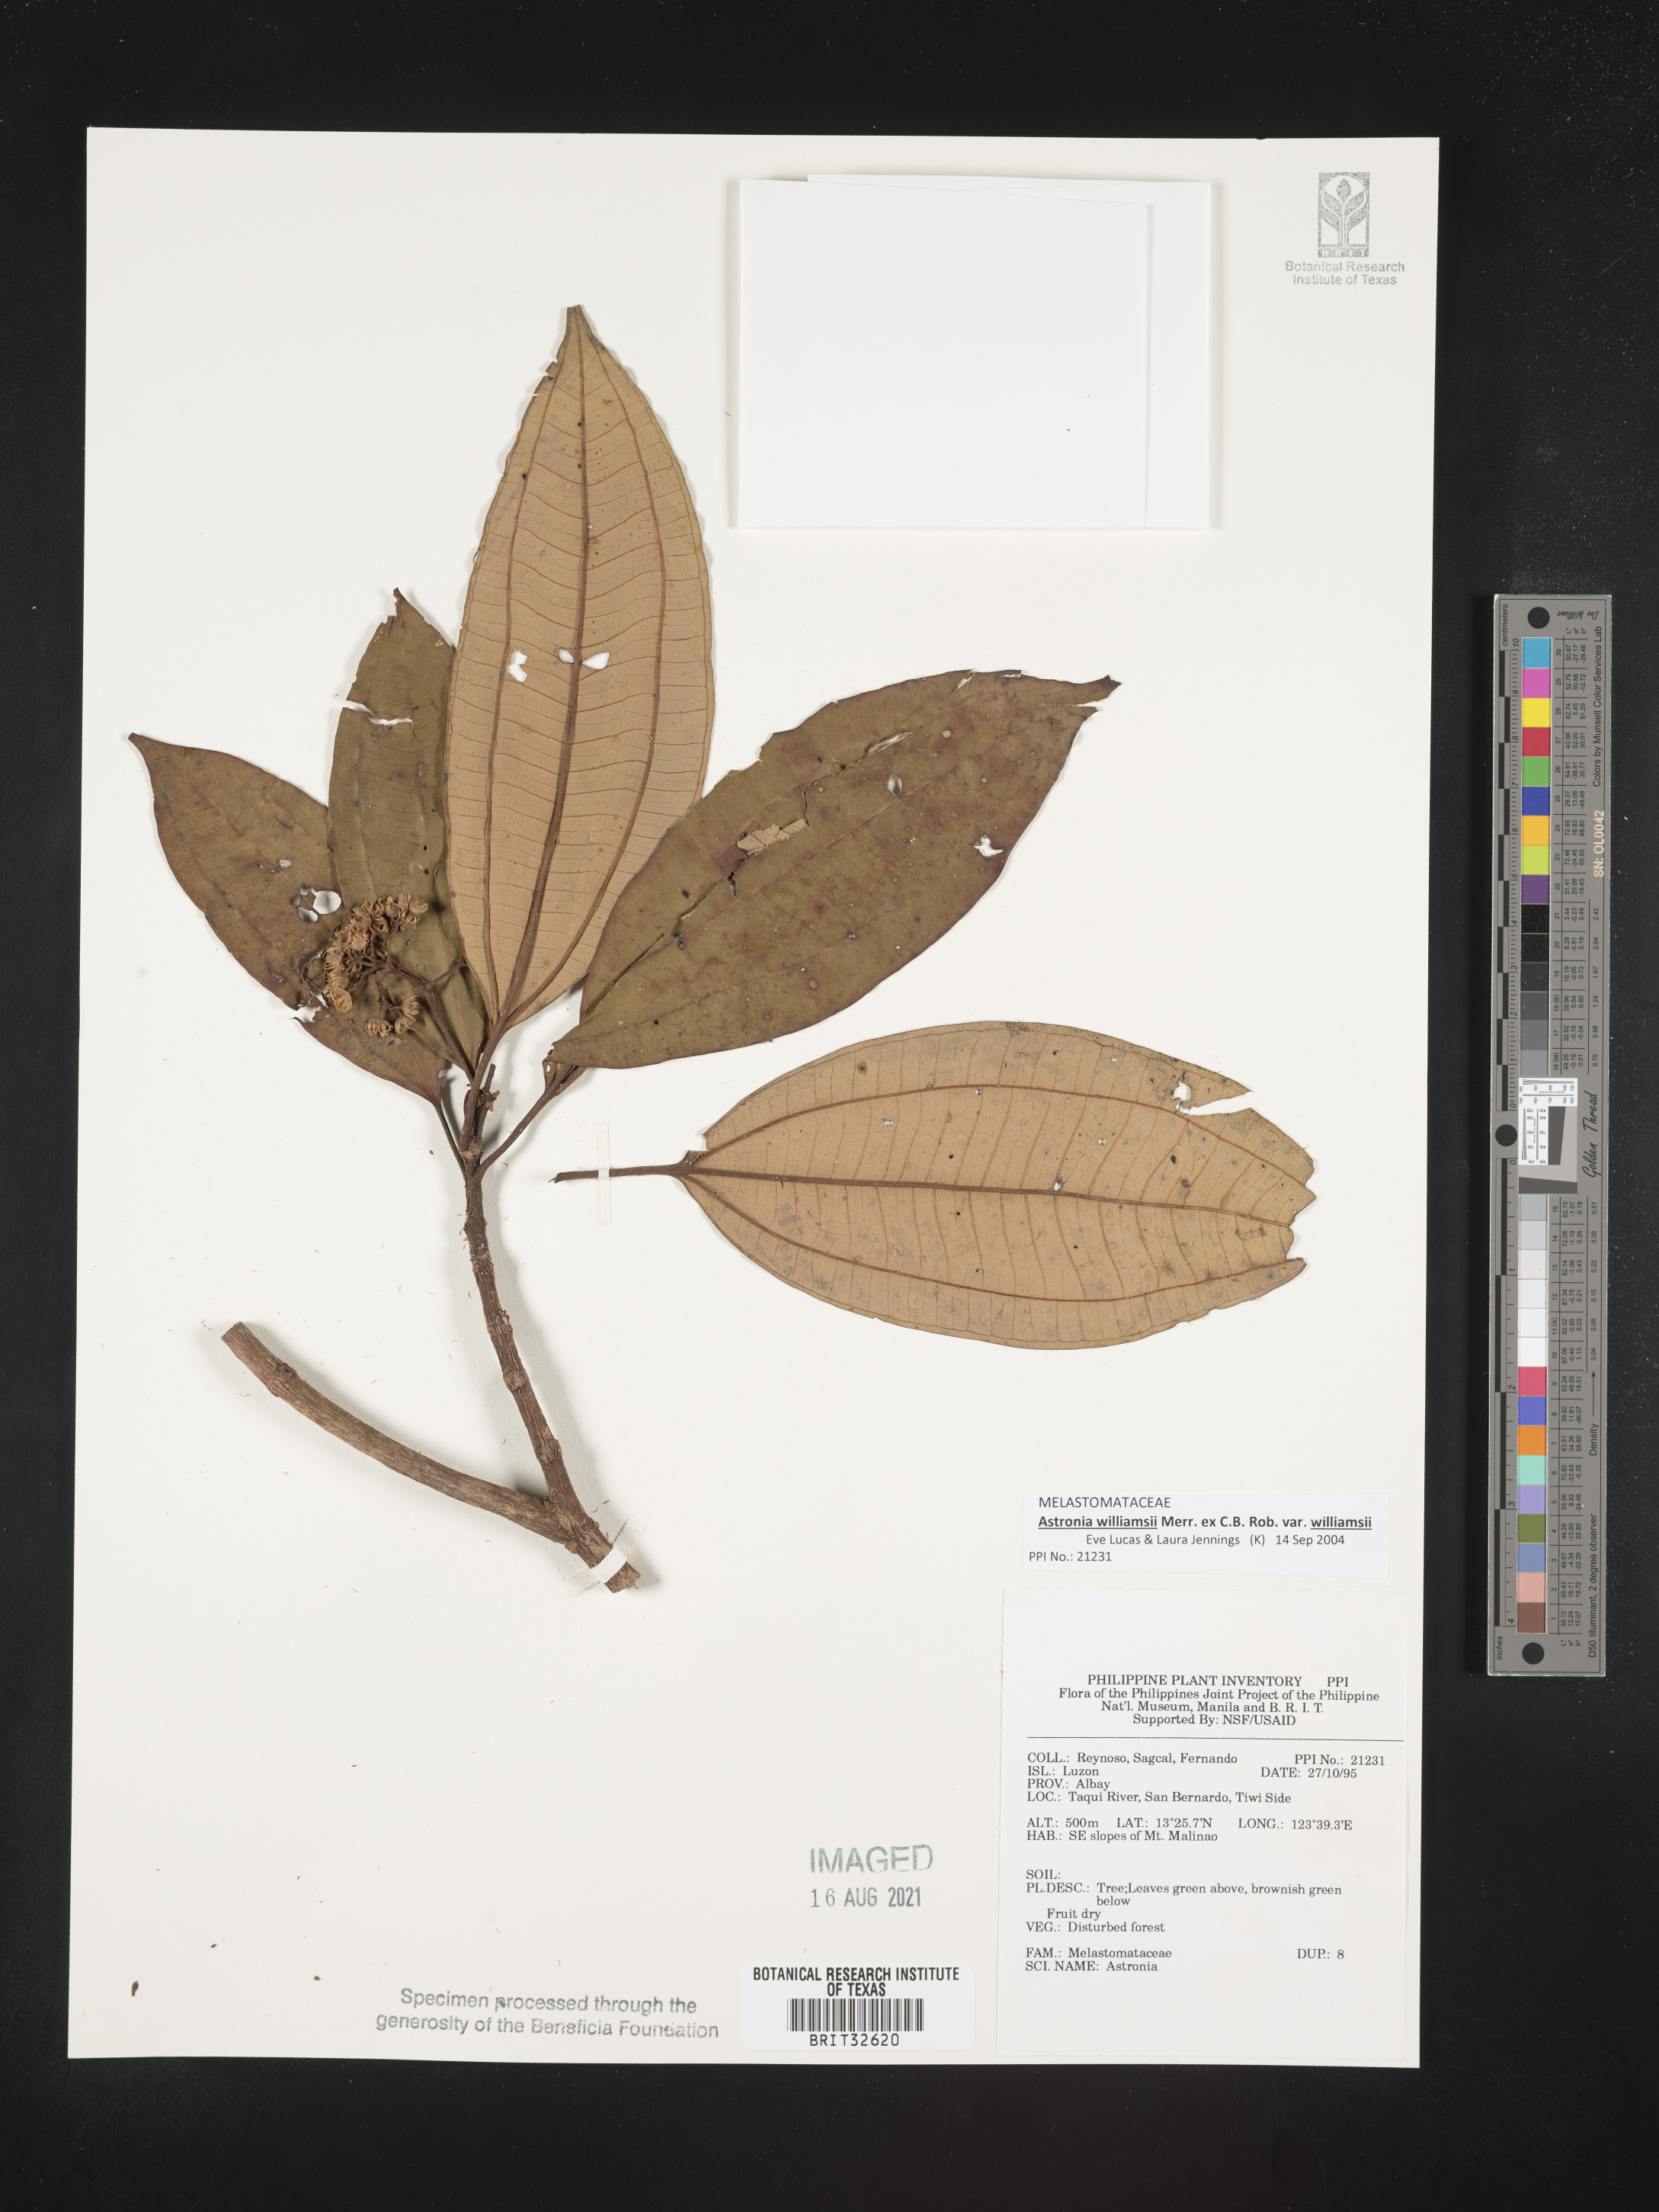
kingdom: Plantae
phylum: Tracheophyta
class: Magnoliopsida
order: Myrtales
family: Melastomataceae
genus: Astronia
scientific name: Astronia
